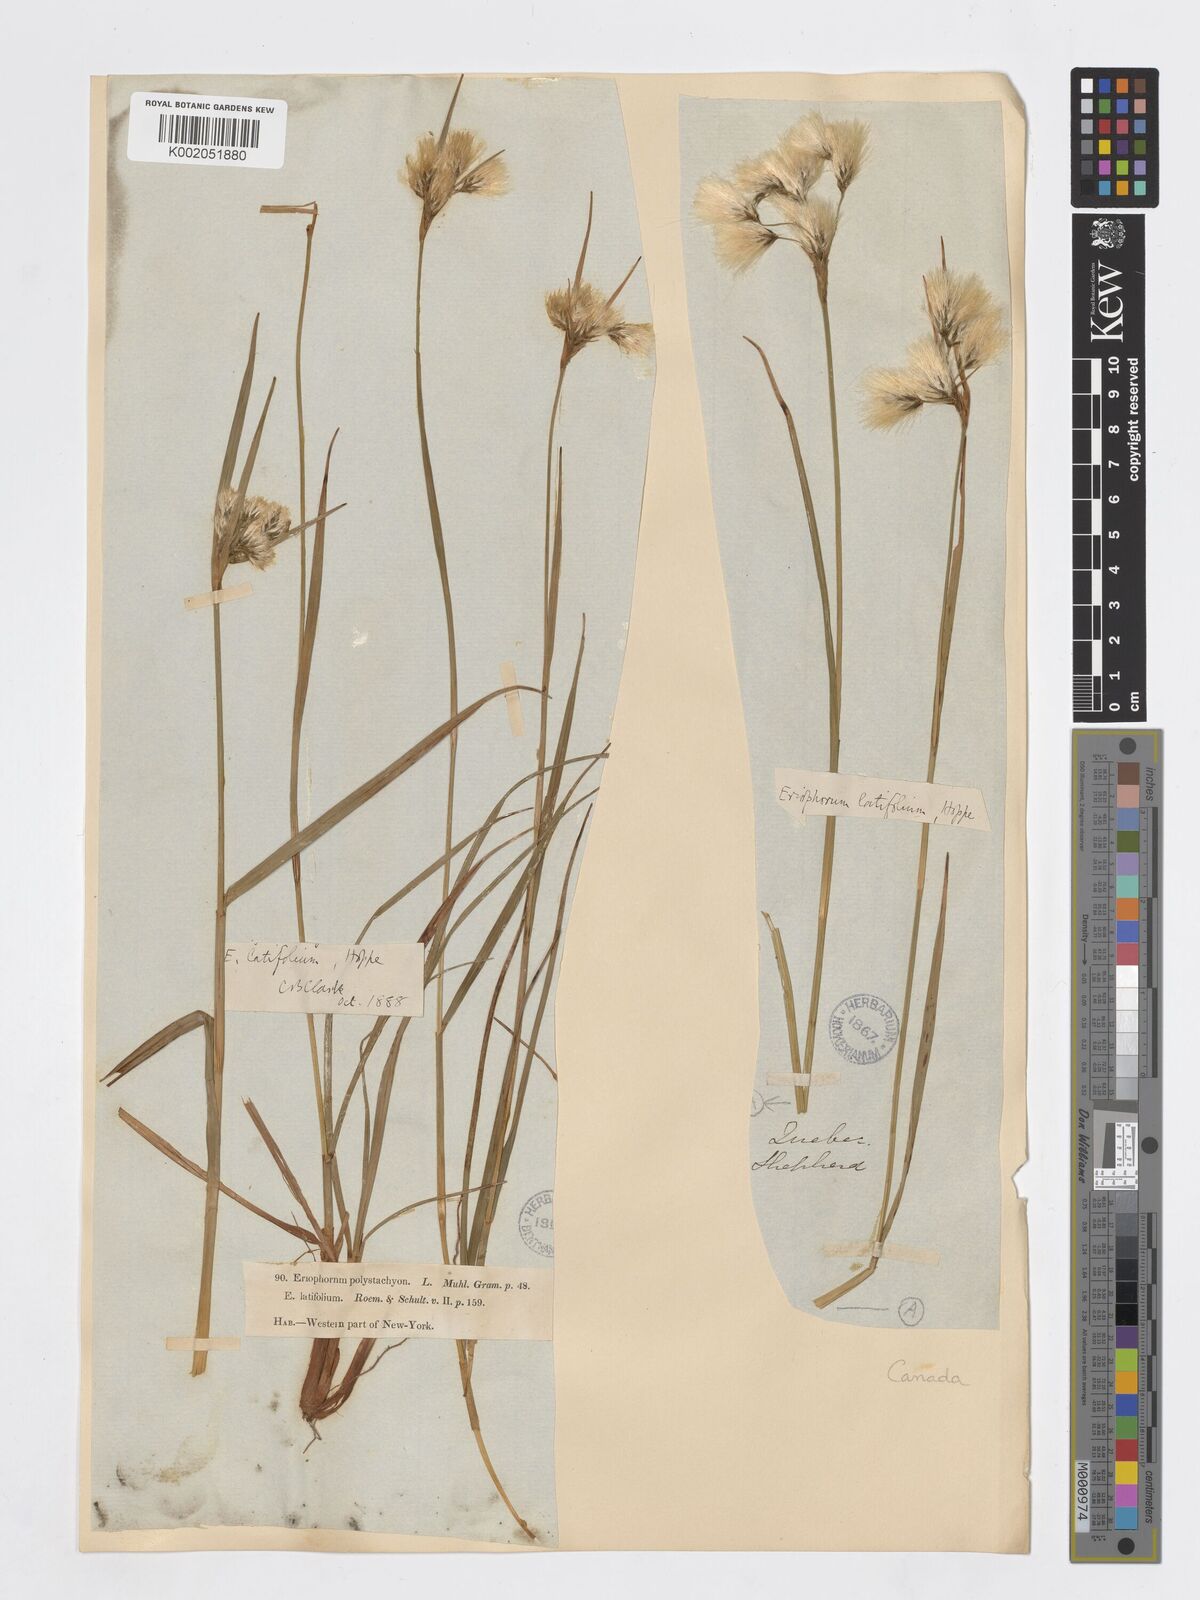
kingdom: Plantae
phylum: Tracheophyta
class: Liliopsida
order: Poales
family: Cyperaceae
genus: Eriophorum
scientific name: Eriophorum latifolium
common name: Broad-leaved cottongrass
